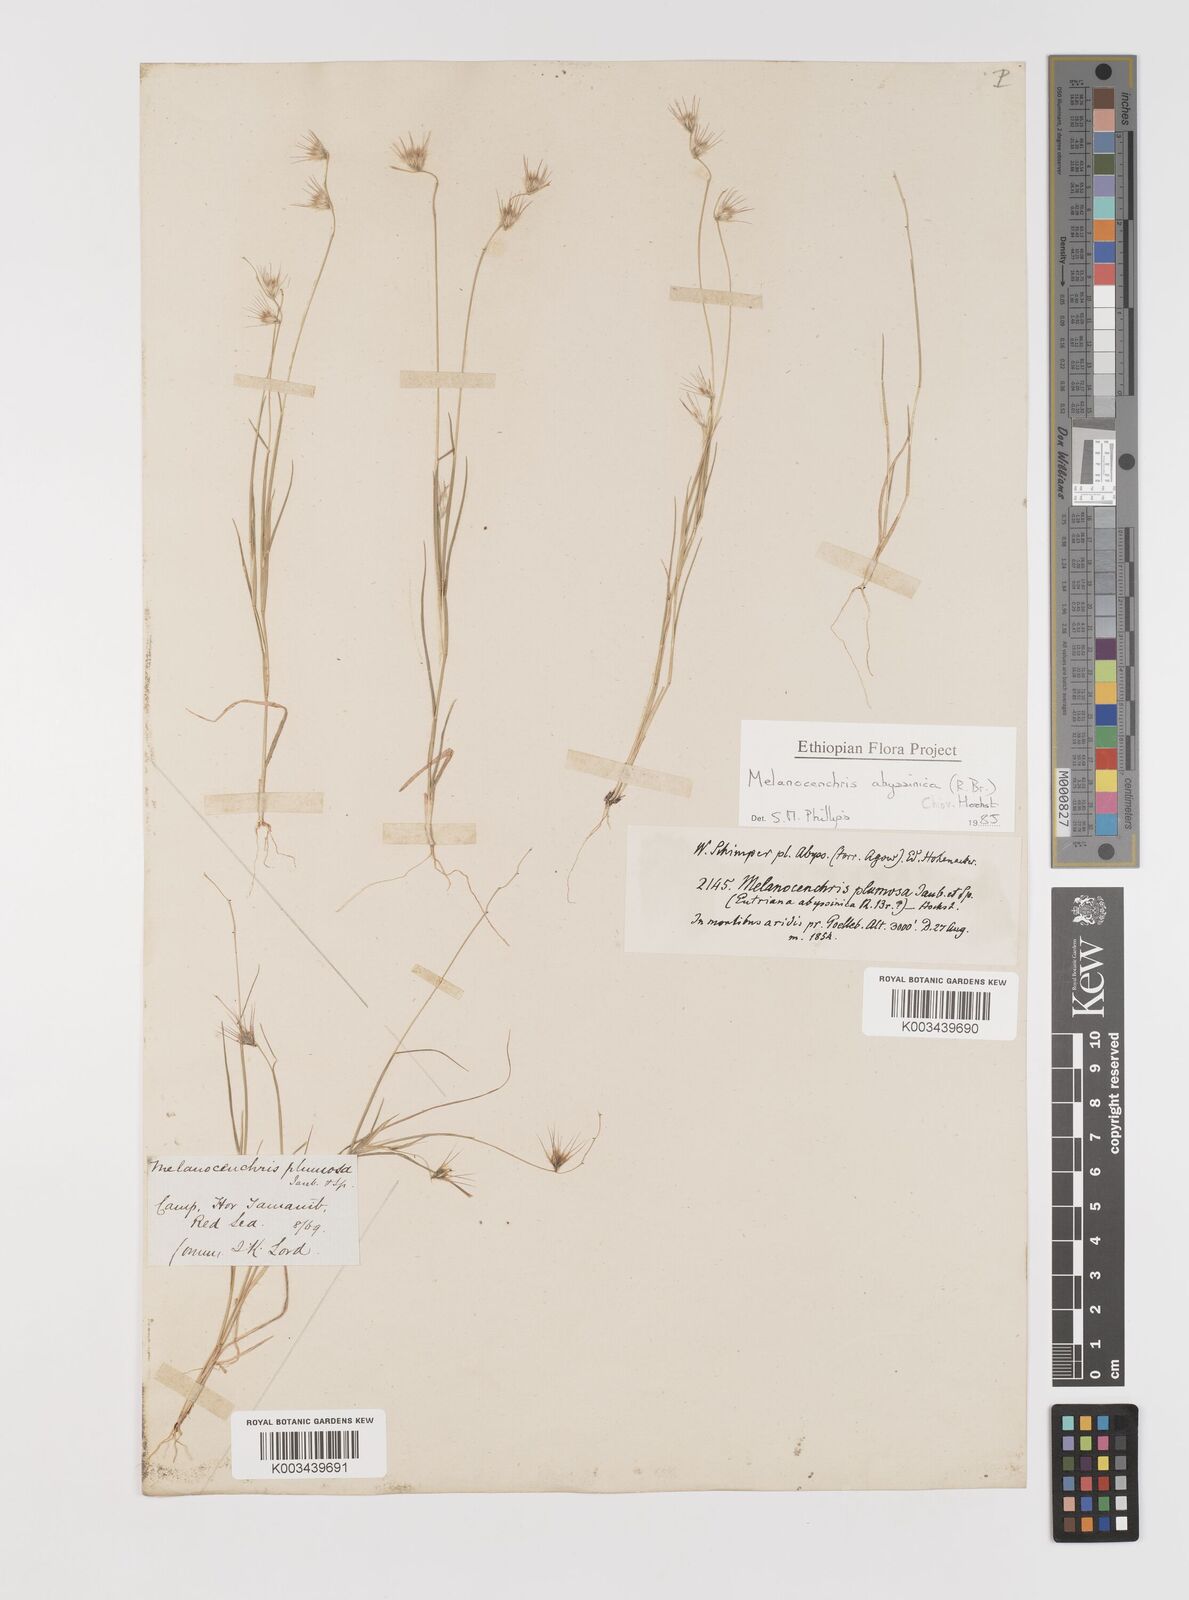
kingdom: Plantae
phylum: Tracheophyta
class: Liliopsida
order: Poales
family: Poaceae
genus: Melanocenchris
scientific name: Melanocenchris abyssinica
